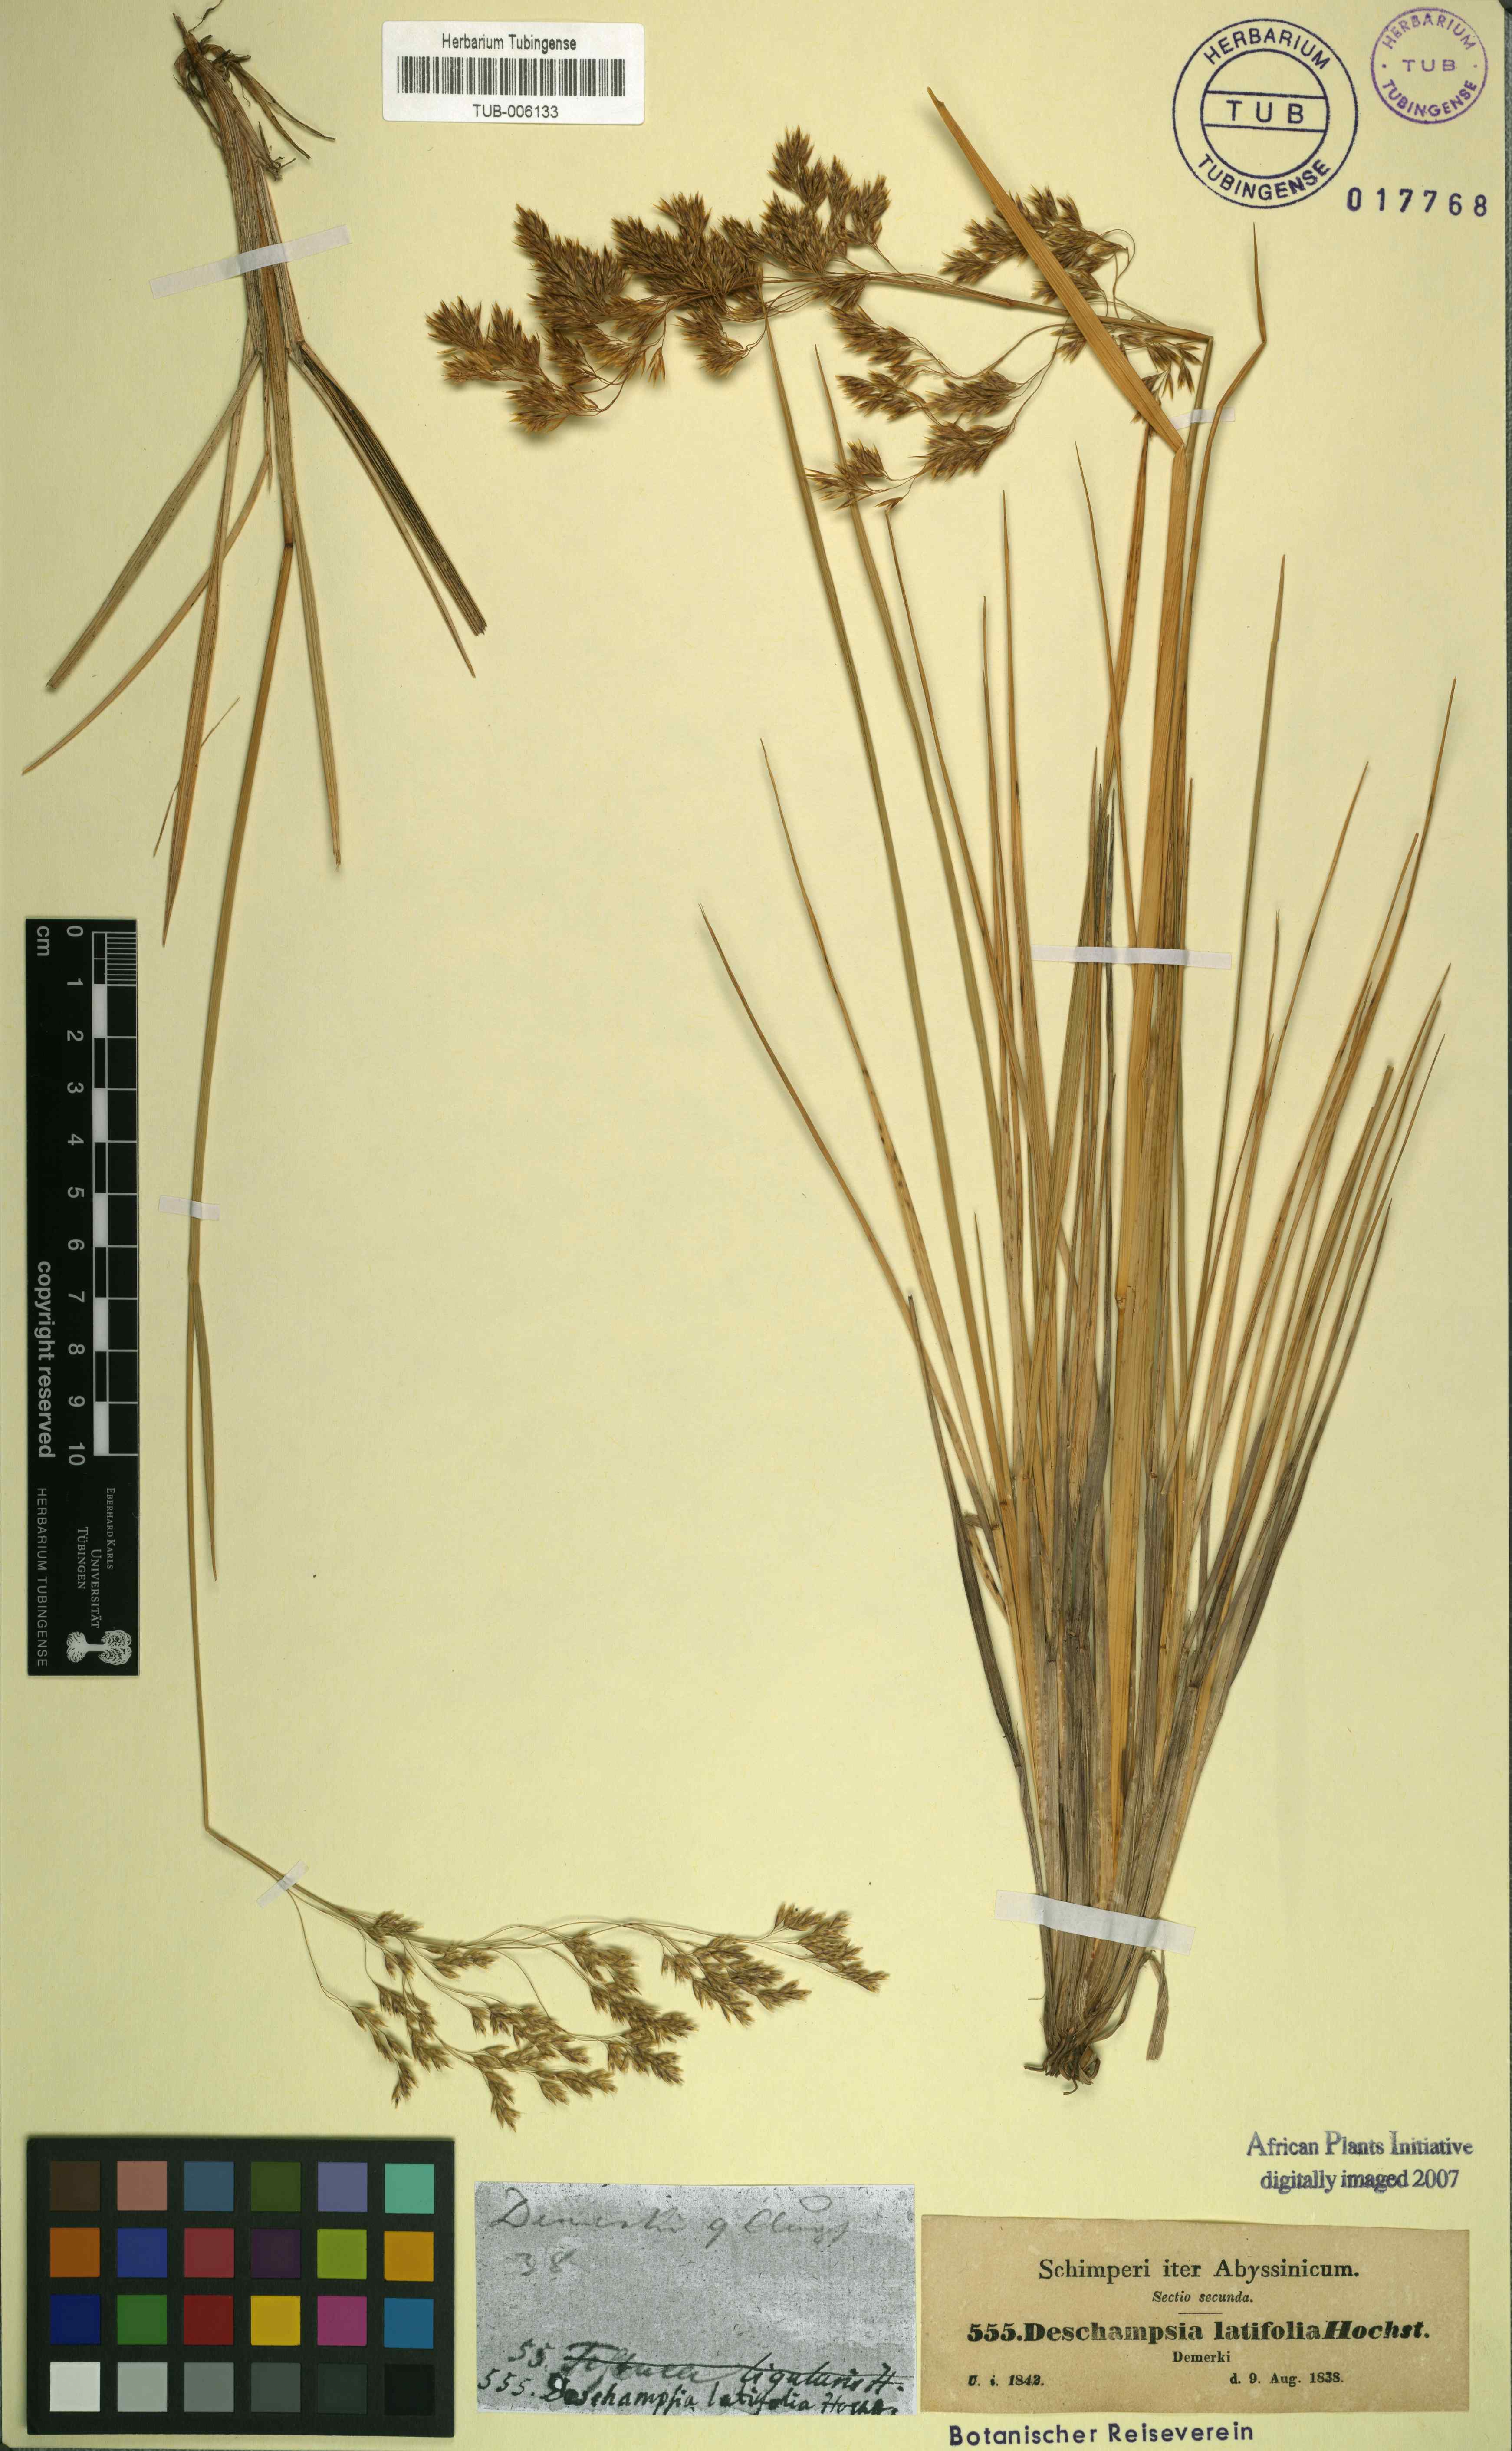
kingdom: Plantae
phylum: Tracheophyta
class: Liliopsida
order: Poales
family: Poaceae
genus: Deschampsia
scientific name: Deschampsia cespitosa
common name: Tufted hair-grass
